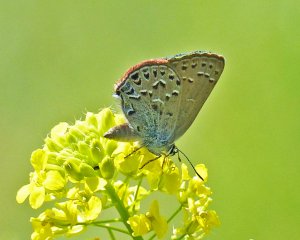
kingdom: Animalia
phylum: Arthropoda
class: Insecta
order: Lepidoptera
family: Lycaenidae
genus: Satyrium
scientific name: Satyrium behrii
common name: Behr's Hairstreak
